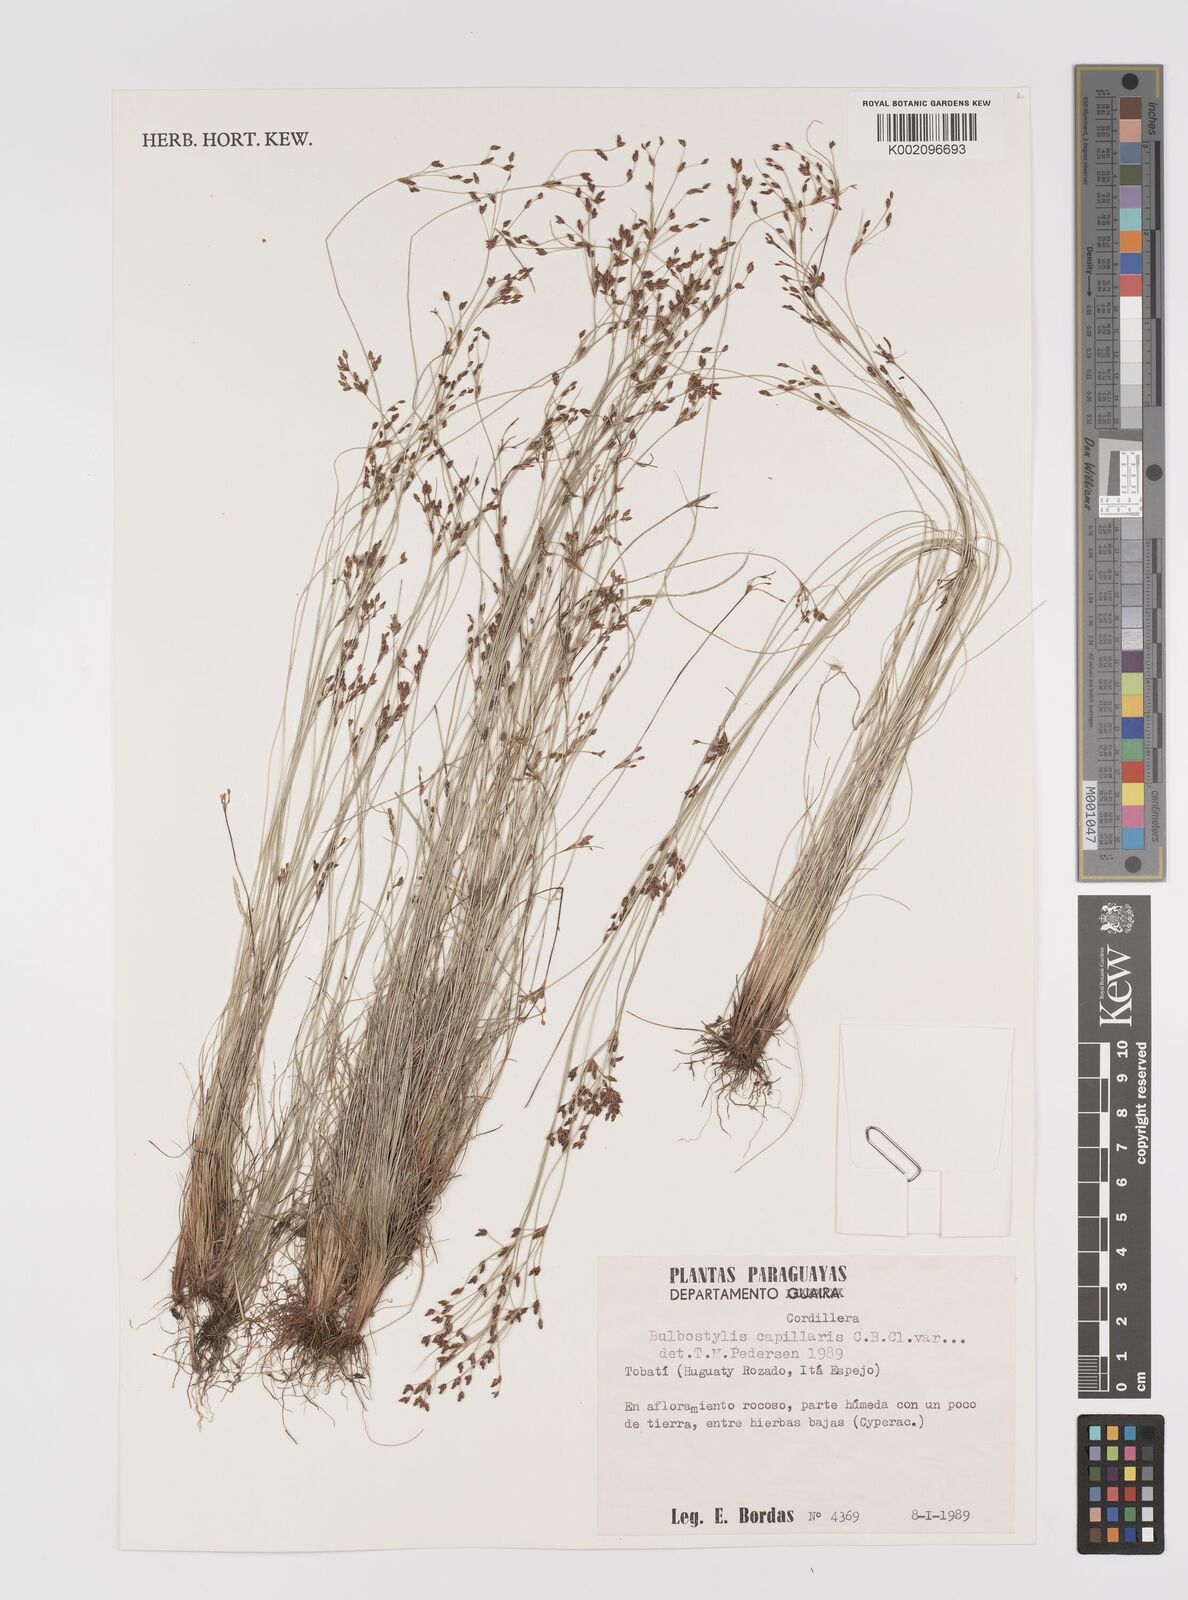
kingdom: Plantae
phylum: Tracheophyta
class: Liliopsida
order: Poales
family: Cyperaceae
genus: Bulbostylis
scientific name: Bulbostylis capillaris
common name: Densetuft hairsedge
